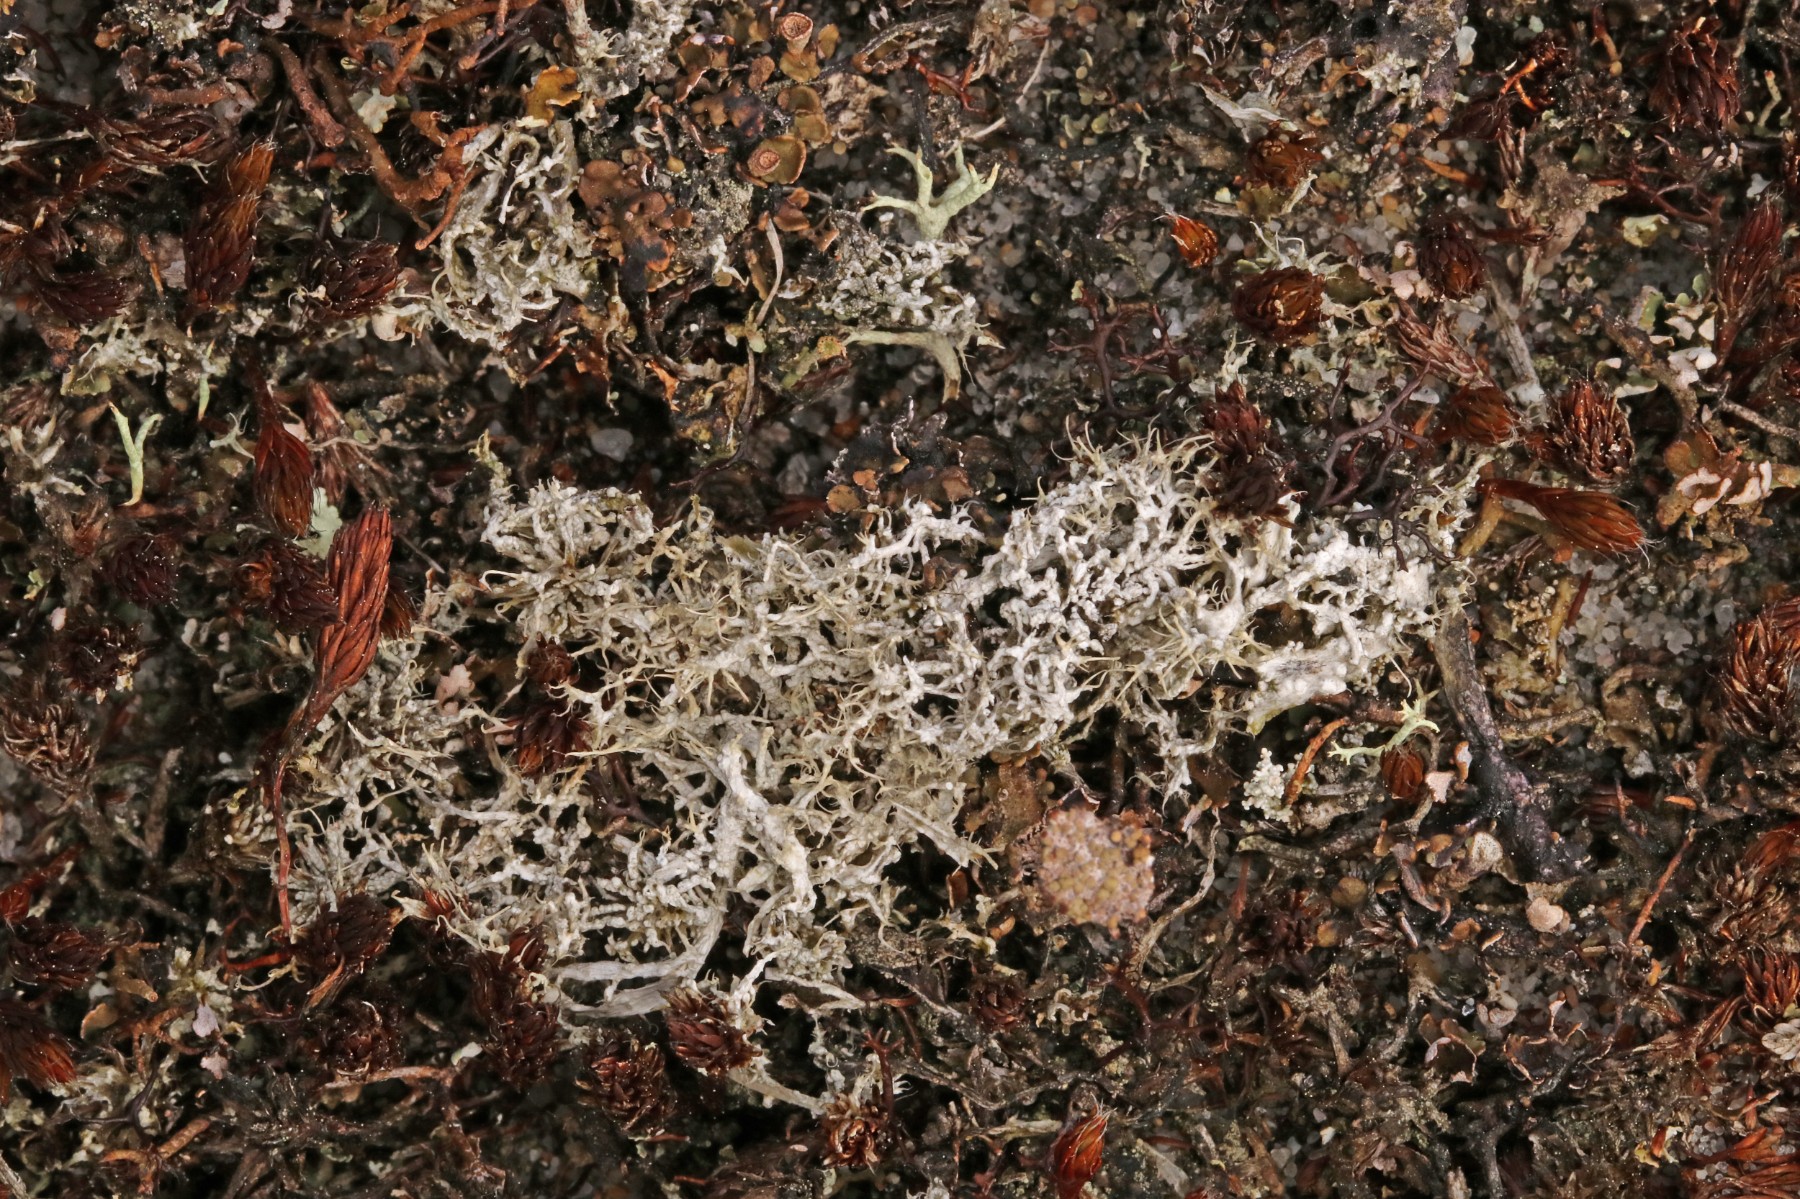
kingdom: Fungi
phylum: Ascomycota
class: Lecanoromycetes
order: Pertusariales
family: Ochrolechiaceae
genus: Ochrolechia
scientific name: Ochrolechia frigida
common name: fjeld-blegskivelav
